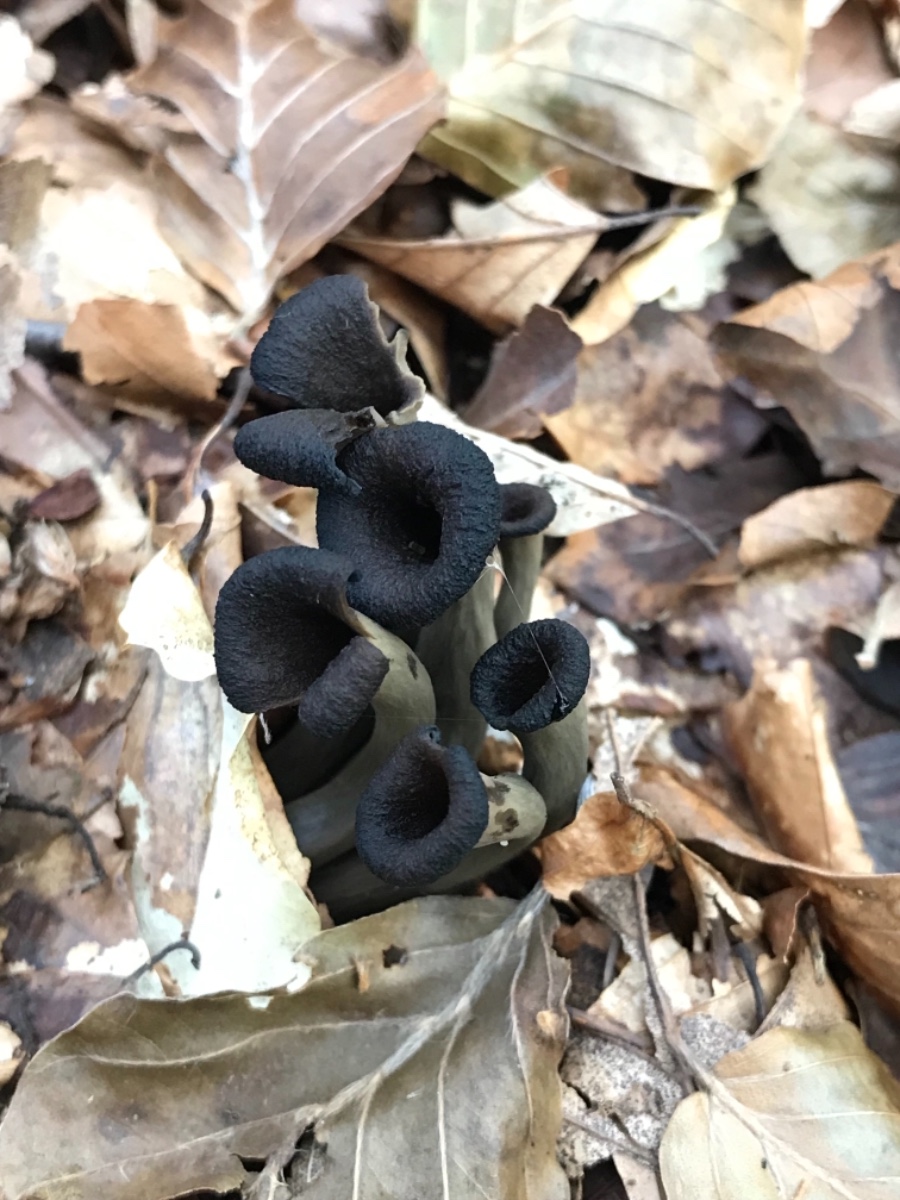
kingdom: Fungi
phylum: Basidiomycota
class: Agaricomycetes
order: Cantharellales
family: Hydnaceae
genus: Craterellus
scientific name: Craterellus cornucopioides
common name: trompetsvamp
